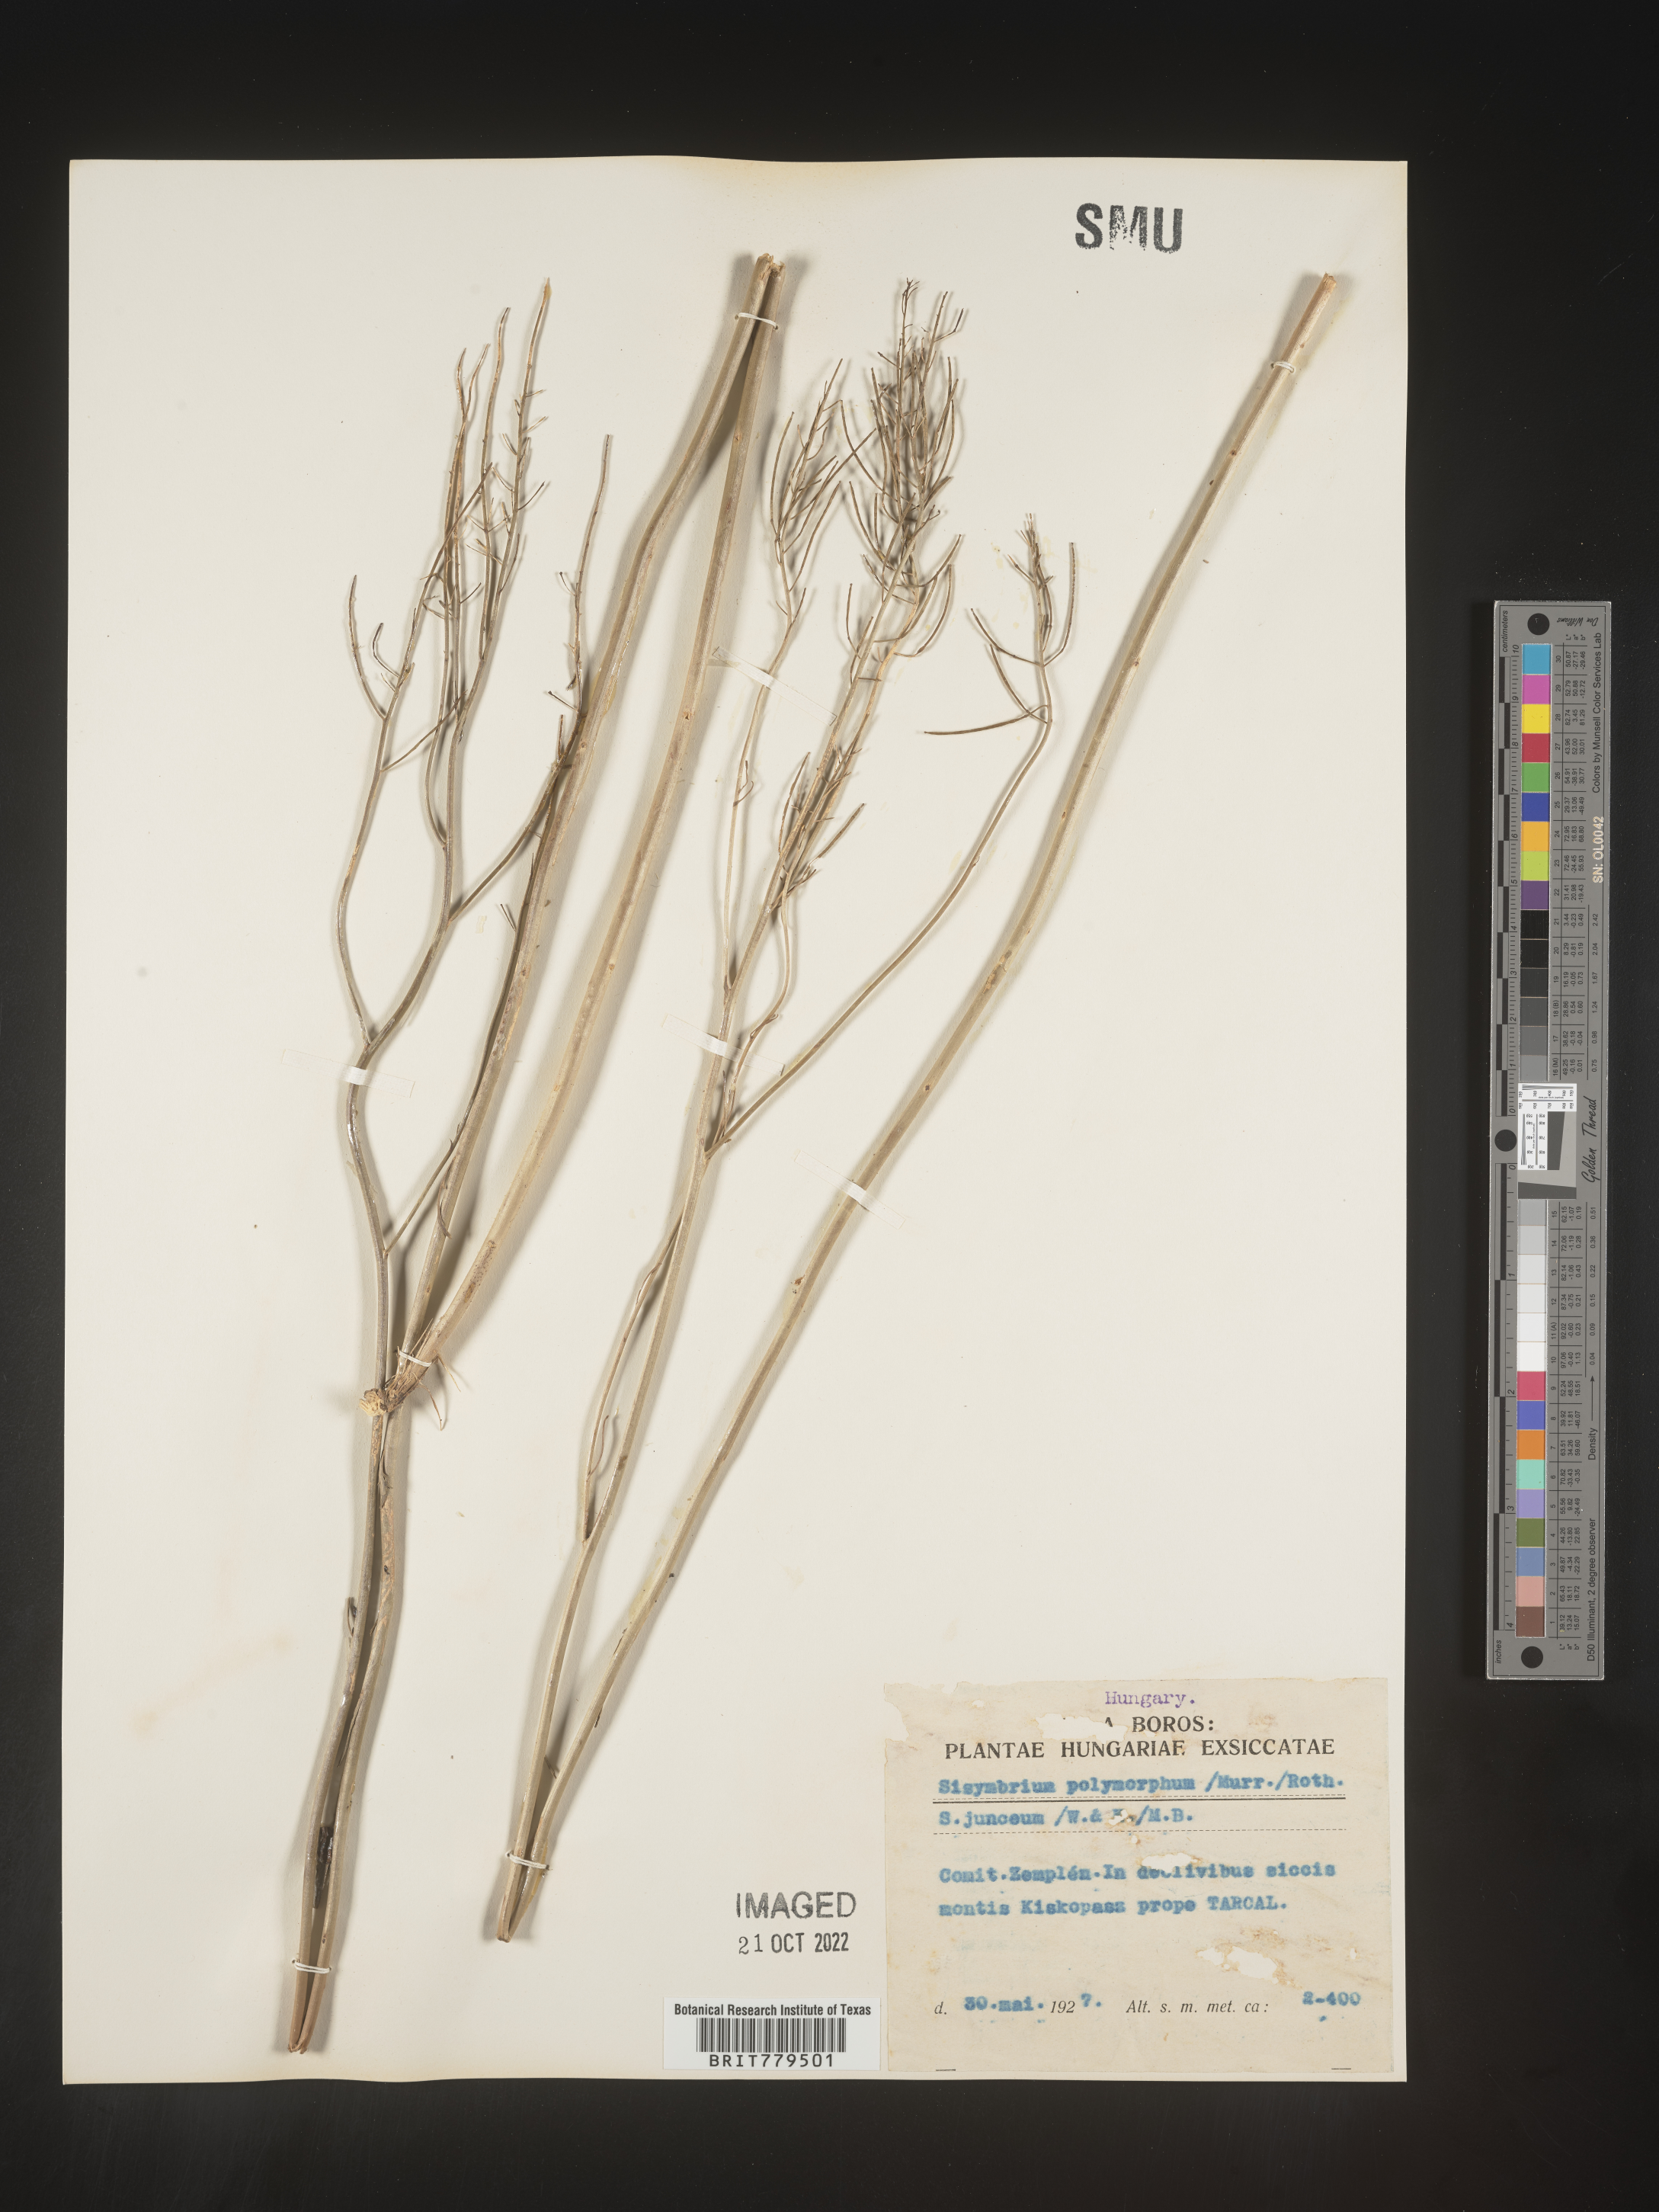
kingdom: Plantae
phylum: Tracheophyta
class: Magnoliopsida
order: Brassicales
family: Brassicaceae
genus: Sisymbrium
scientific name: Sisymbrium
